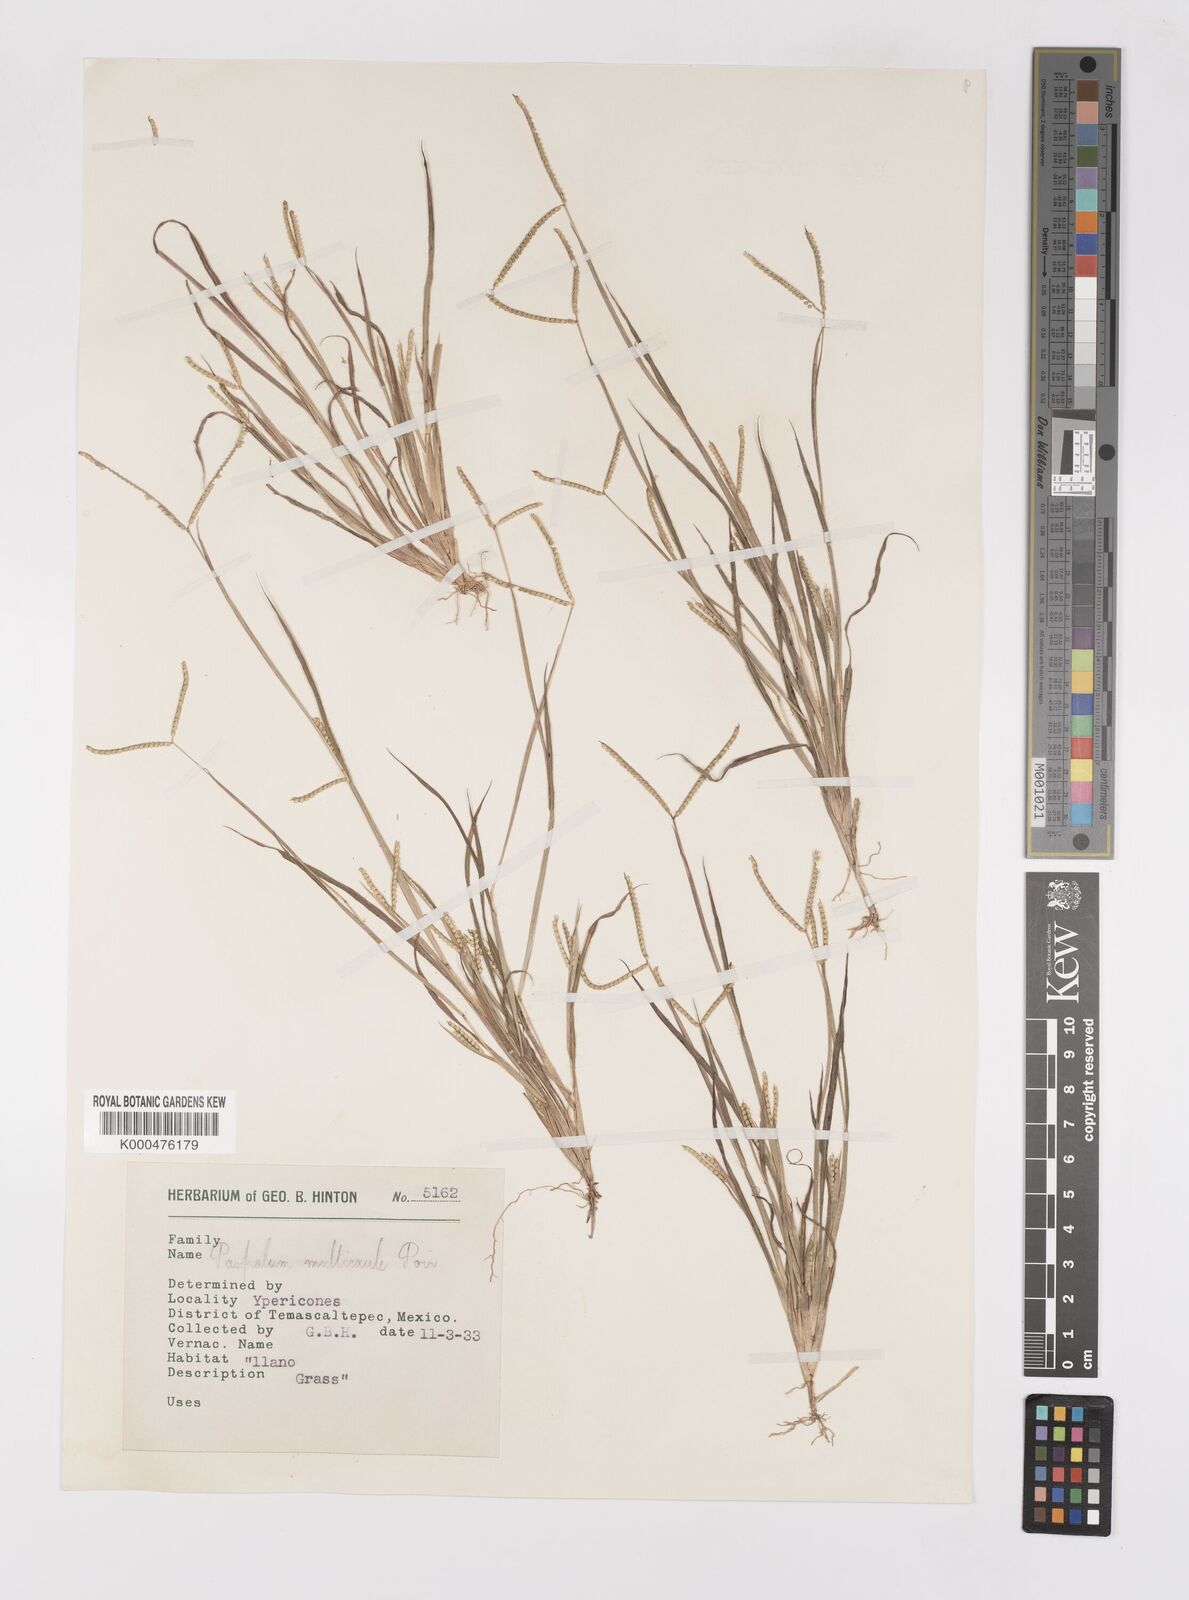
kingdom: Plantae
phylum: Tracheophyta
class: Liliopsida
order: Poales
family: Poaceae
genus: Paspalum
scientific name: Paspalum multicaule
